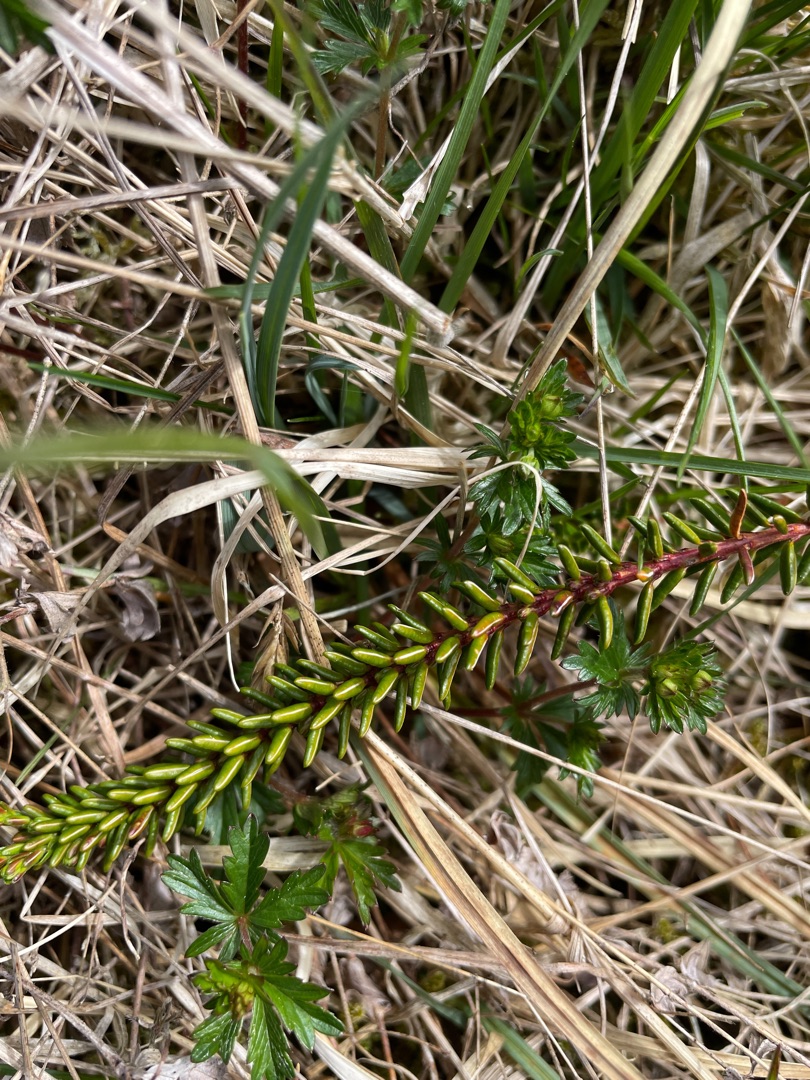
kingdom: Plantae
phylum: Tracheophyta
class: Magnoliopsida
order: Ericales
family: Ericaceae
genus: Empetrum
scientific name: Empetrum nigrum
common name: Revling
